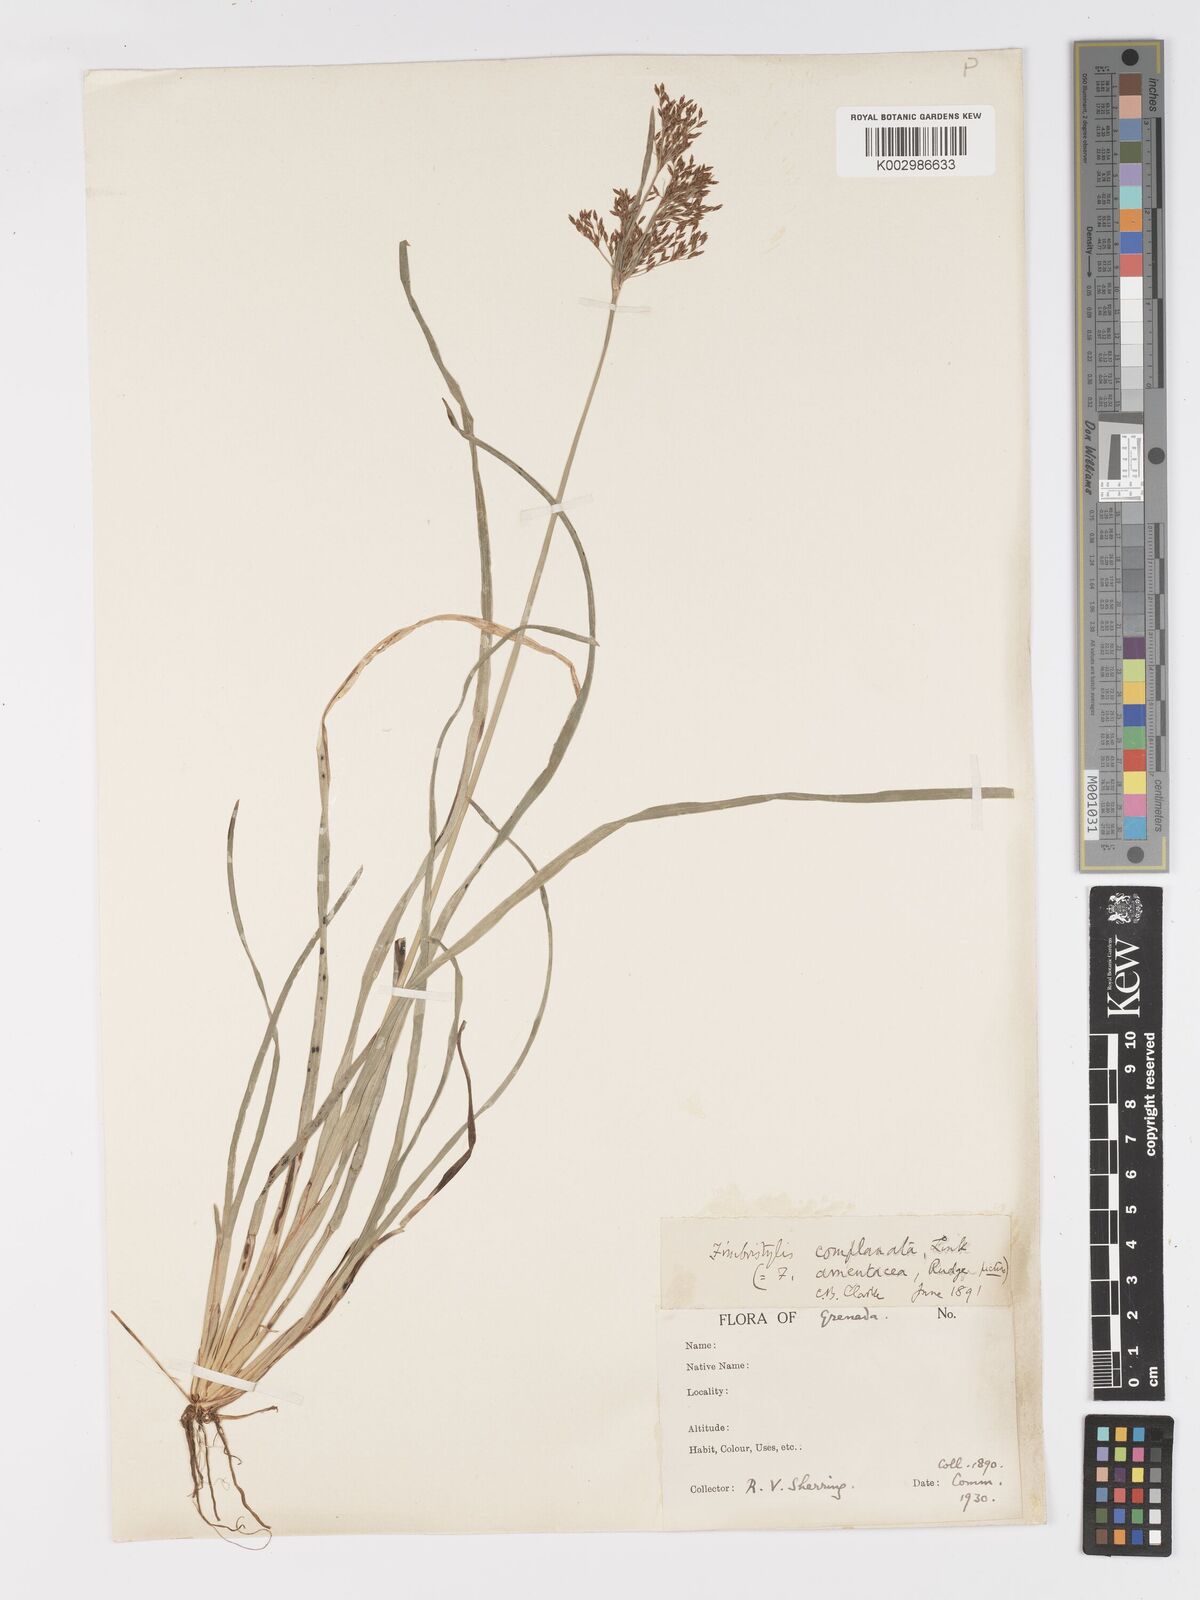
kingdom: Plantae
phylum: Tracheophyta
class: Liliopsida
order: Poales
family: Cyperaceae
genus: Fimbristylis
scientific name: Fimbristylis complanata
